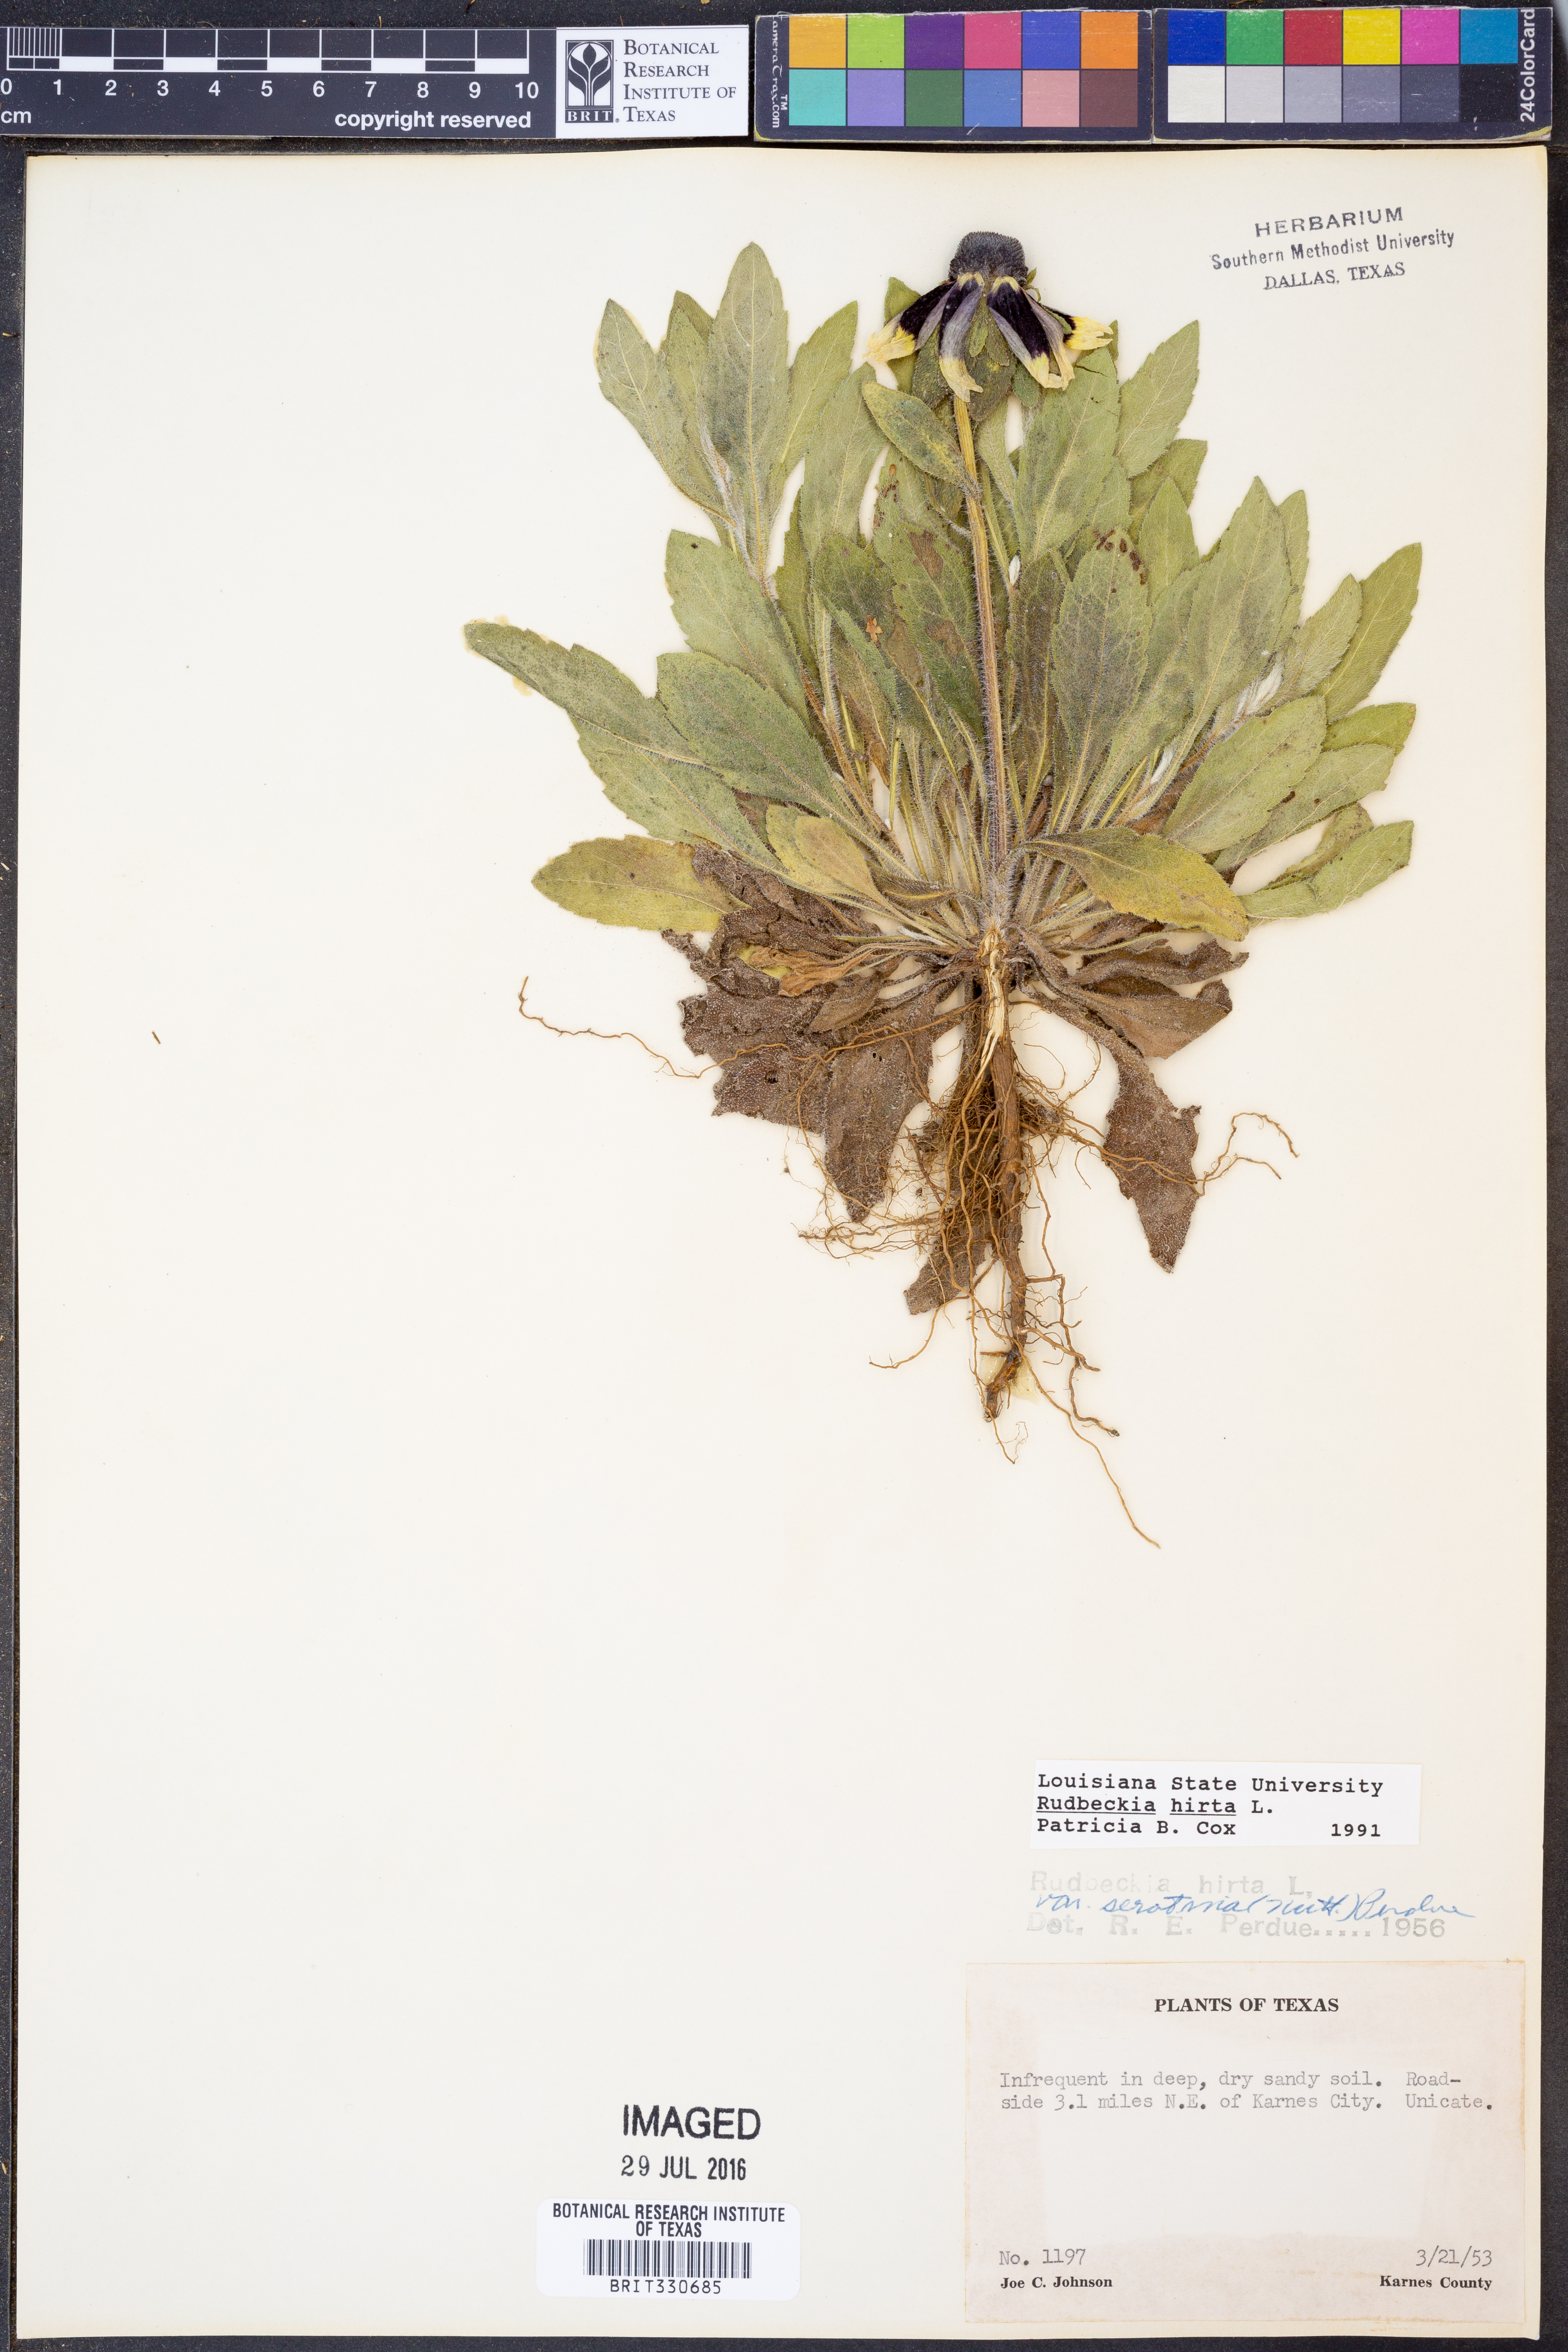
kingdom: Plantae
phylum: Tracheophyta
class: Magnoliopsida
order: Asterales
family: Asteraceae
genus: Rudbeckia
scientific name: Rudbeckia hirta
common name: Black-eyed-susan
